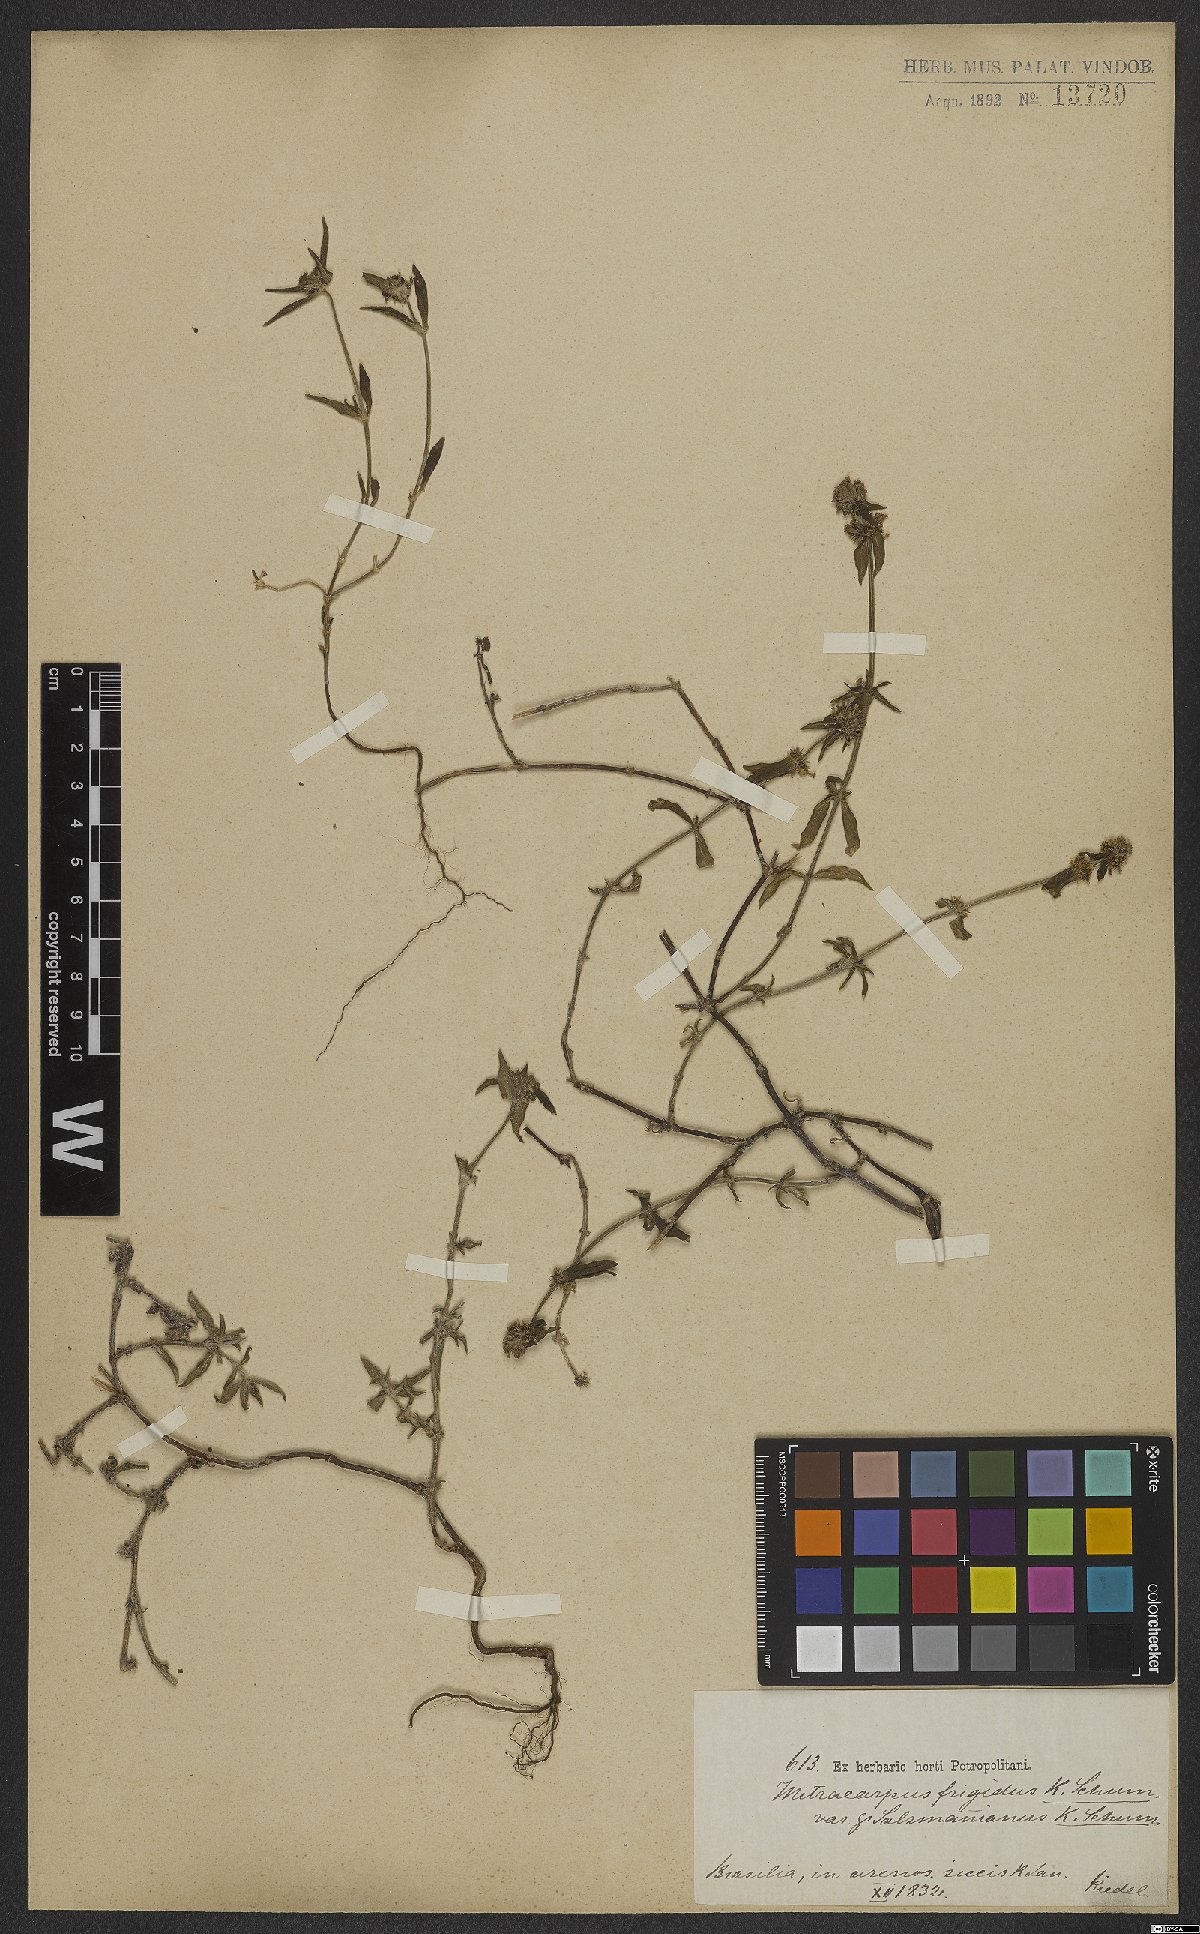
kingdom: Plantae
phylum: Tracheophyta
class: Magnoliopsida
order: Gentianales
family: Rubiaceae
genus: Mitracarpus
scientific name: Mitracarpus frigidus
